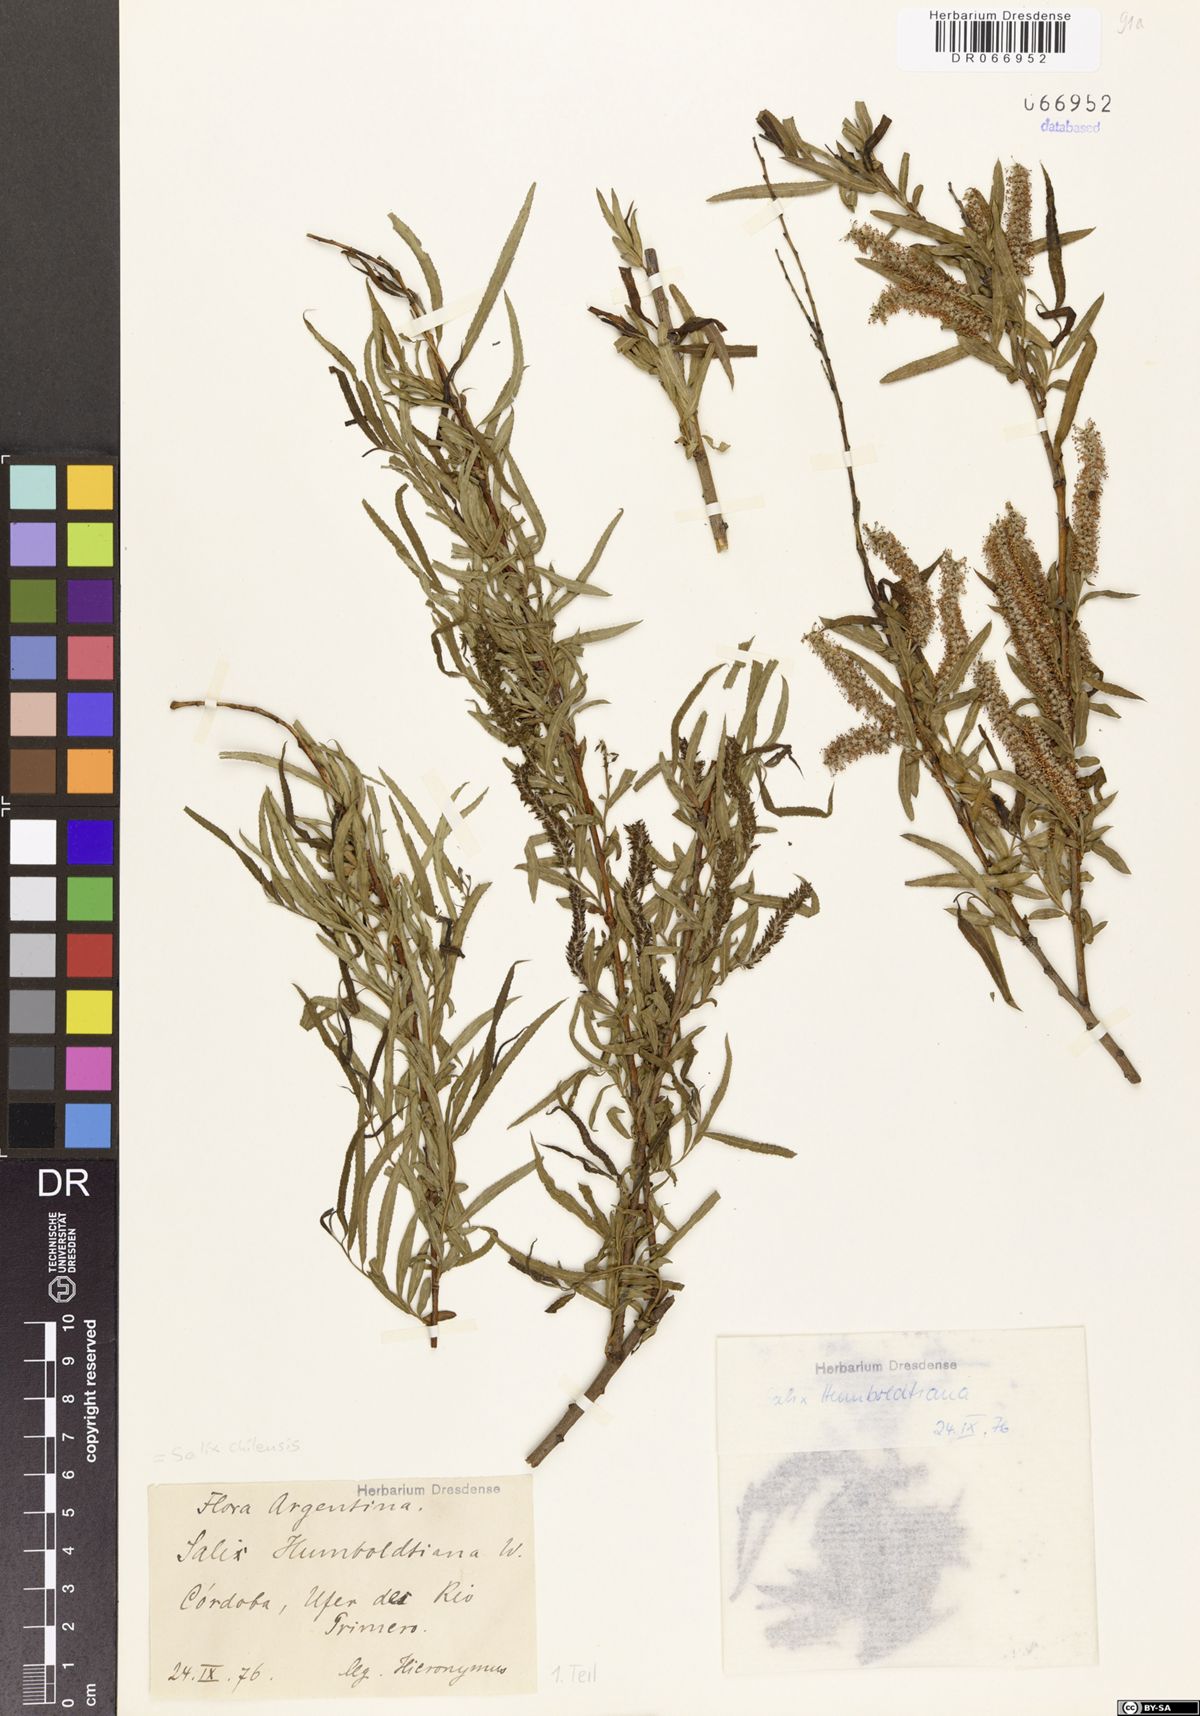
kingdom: Plantae
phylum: Tracheophyta
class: Magnoliopsida
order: Malpighiales
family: Salicaceae
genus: Salix
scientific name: Salix humboldtiana
